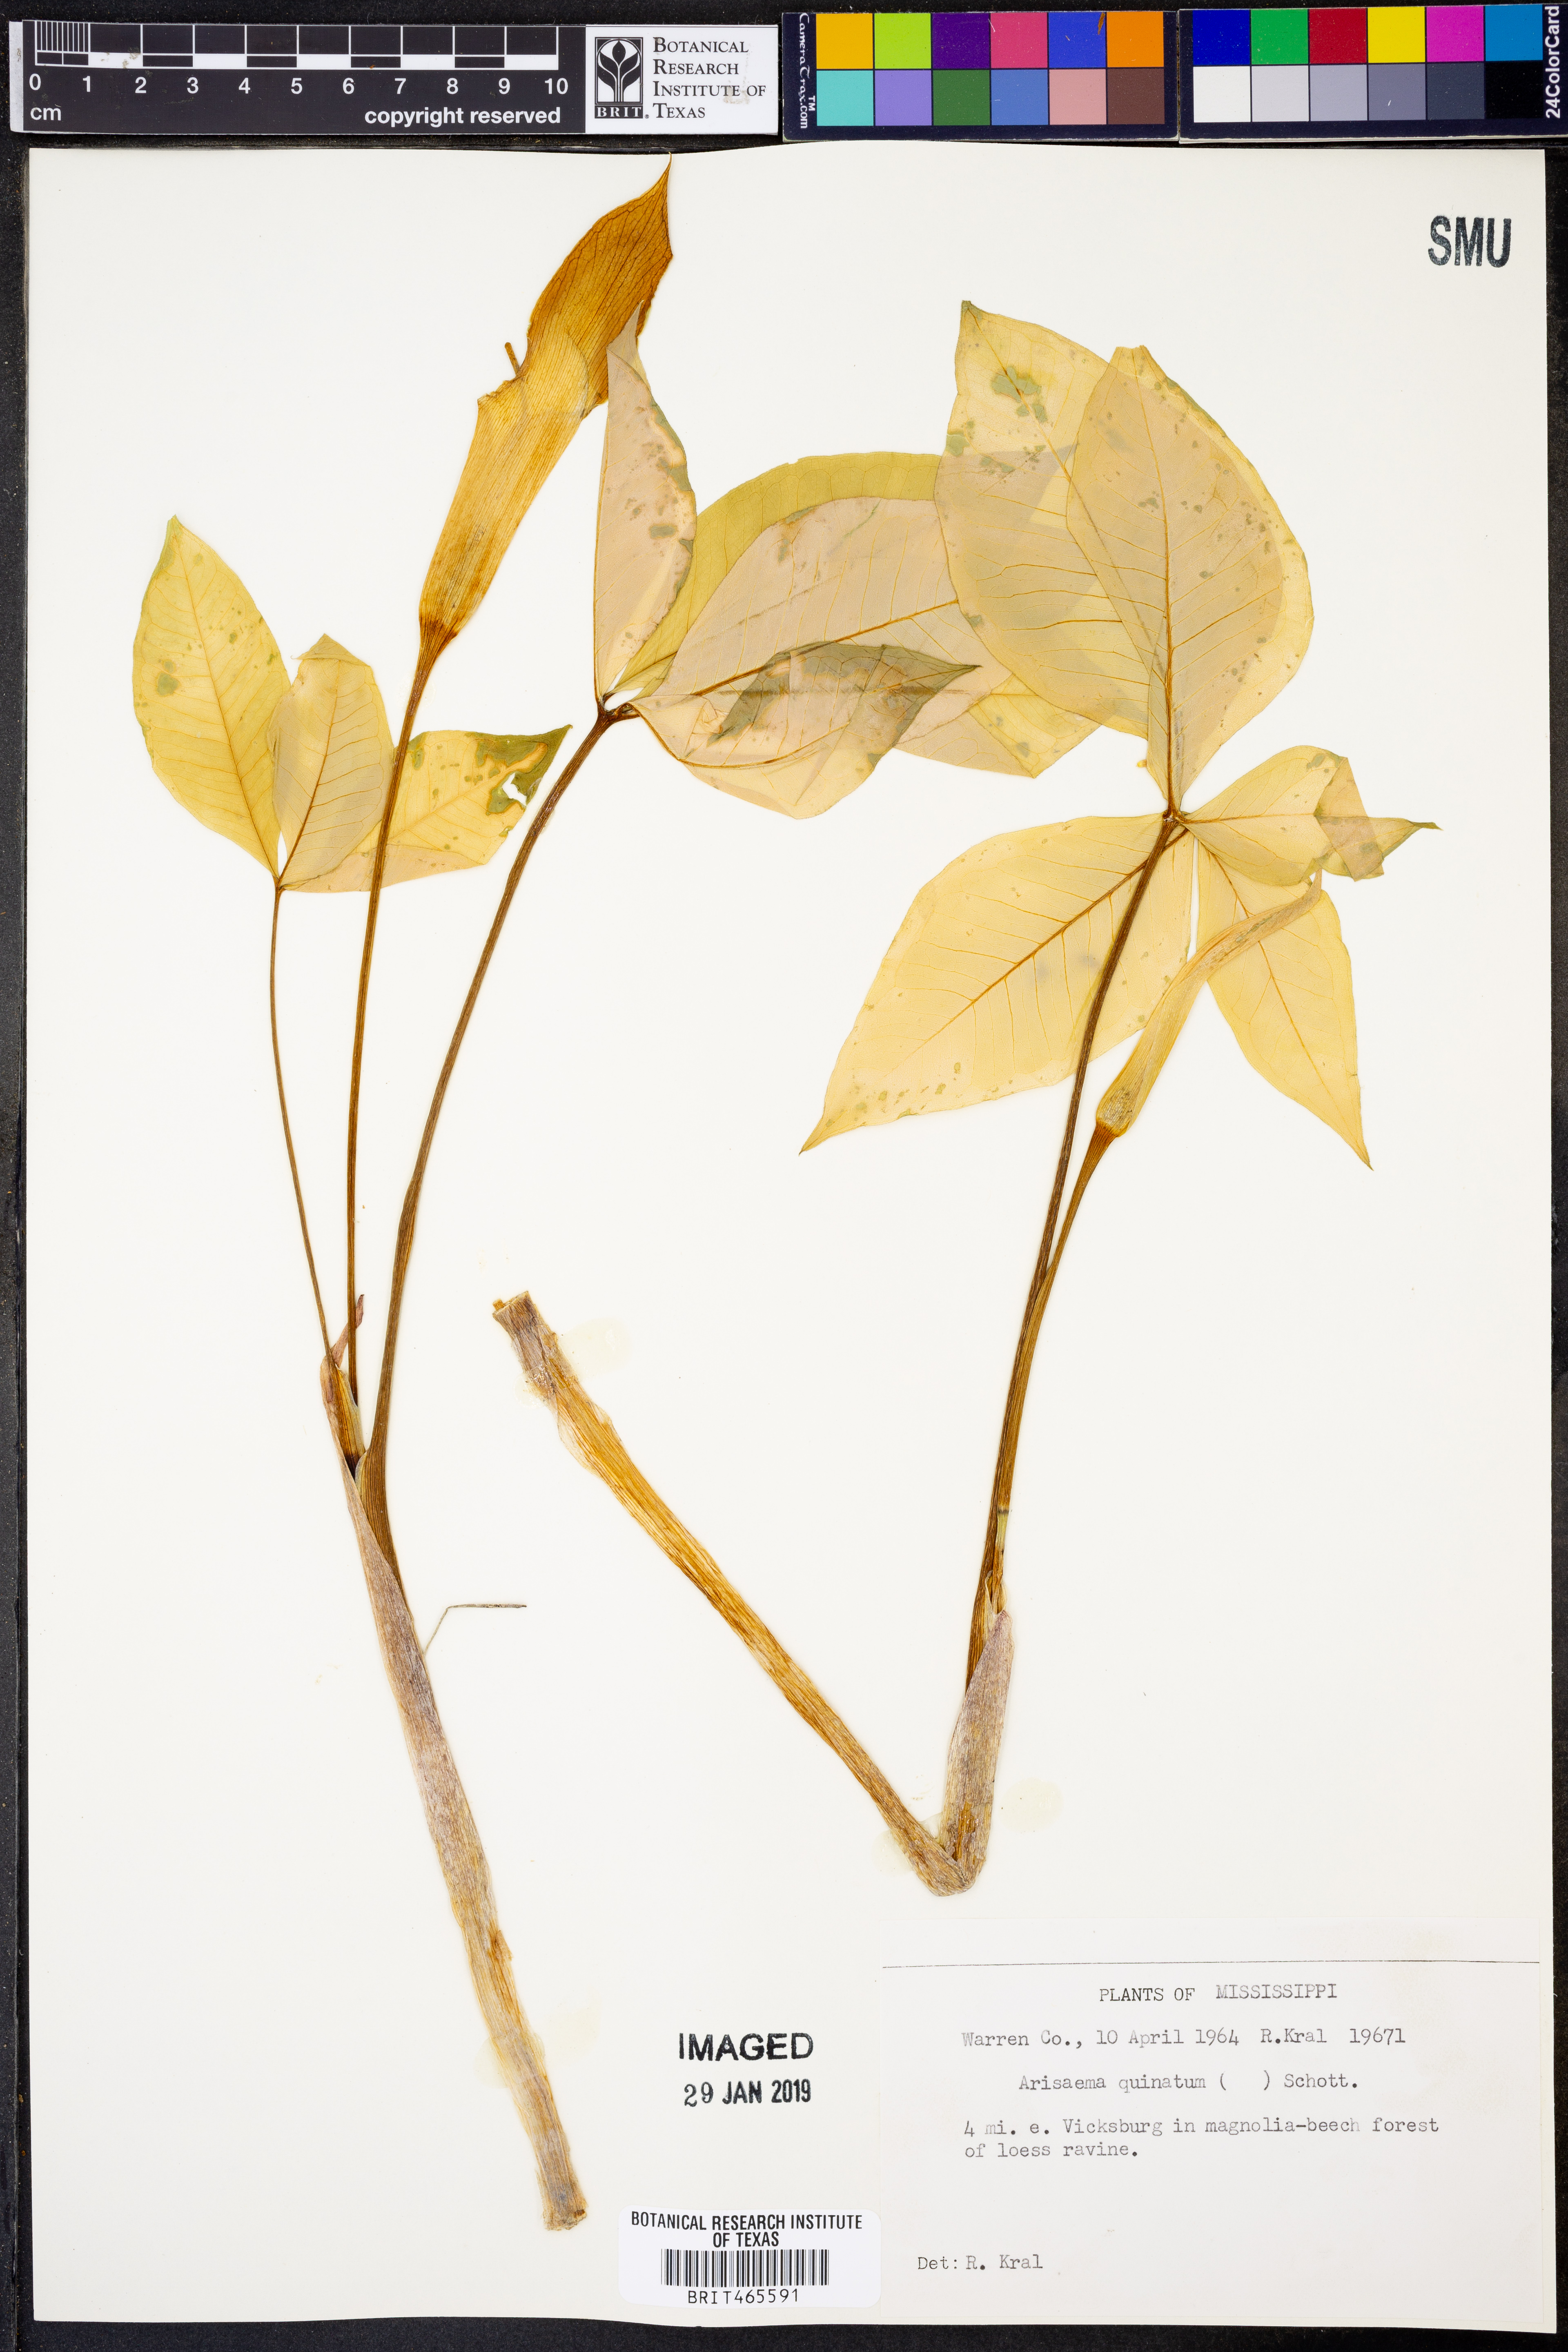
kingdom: Plantae
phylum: Tracheophyta
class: Liliopsida
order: Alismatales
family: Araceae
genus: Arisaema
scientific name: Arisaema quinatum
